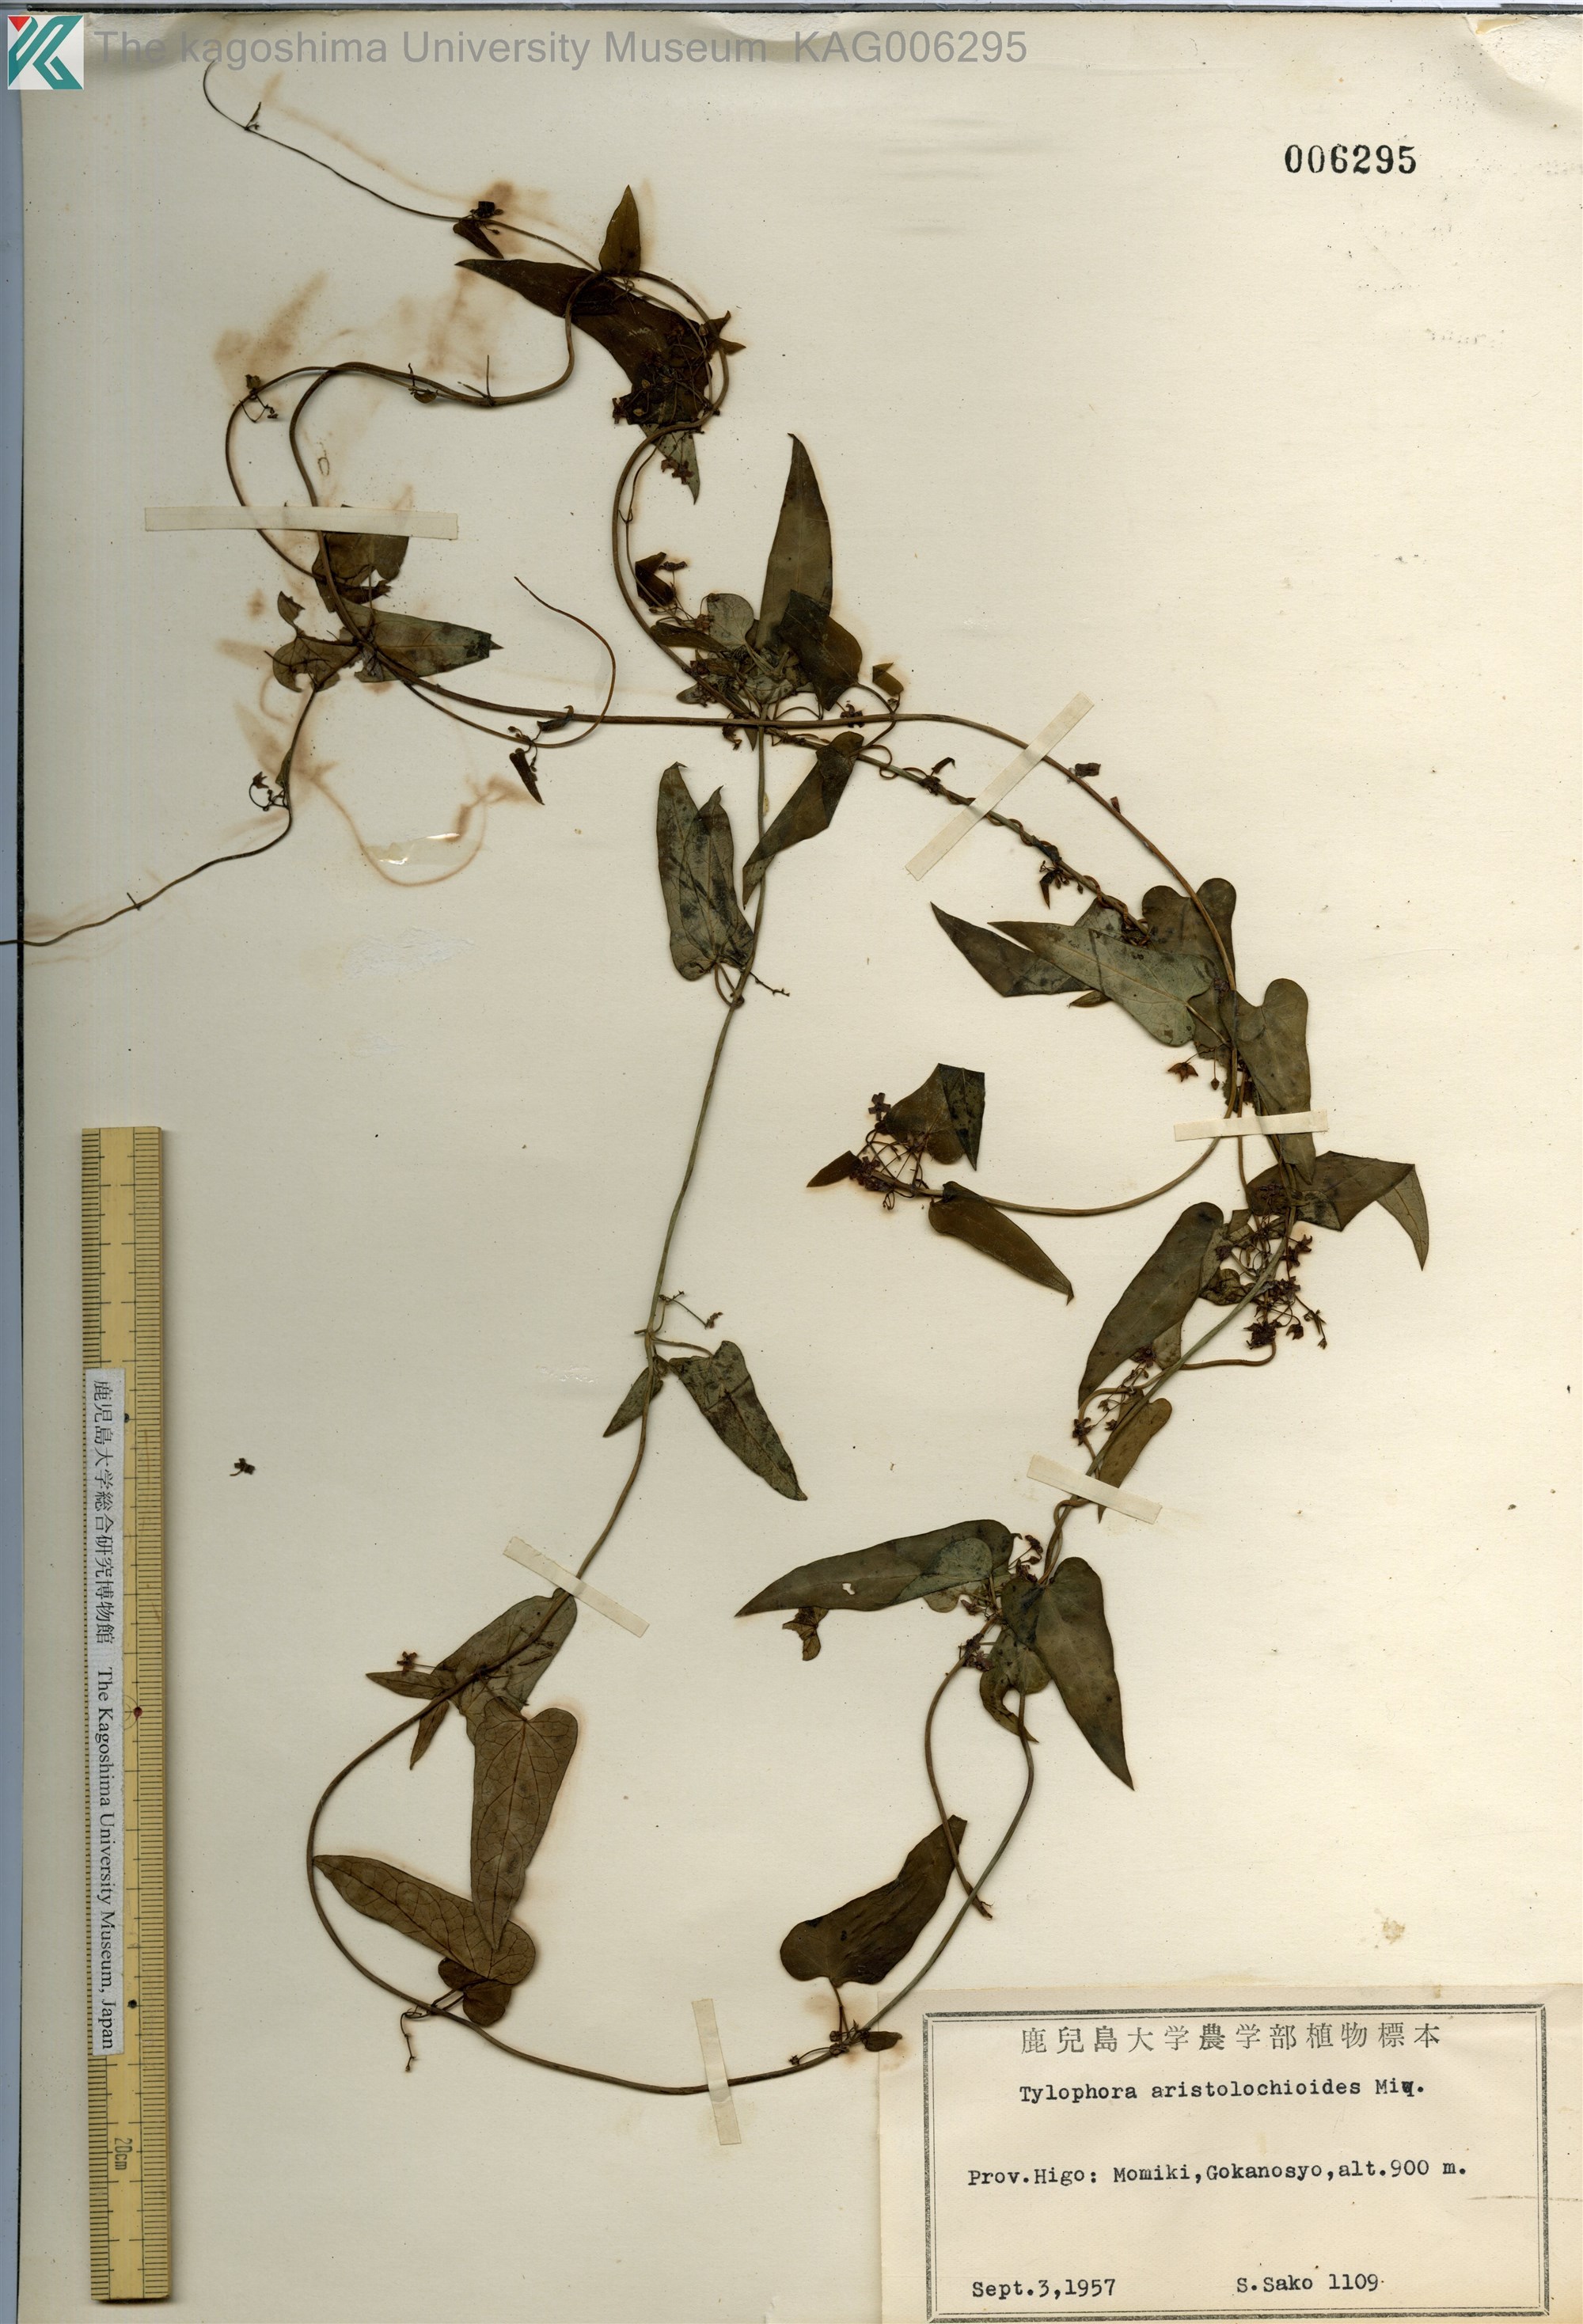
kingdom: Plantae
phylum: Tracheophyta
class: Magnoliopsida
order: Gentianales
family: Apocynaceae
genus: Vincetoxicum
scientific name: Vincetoxicum aristolochioides
